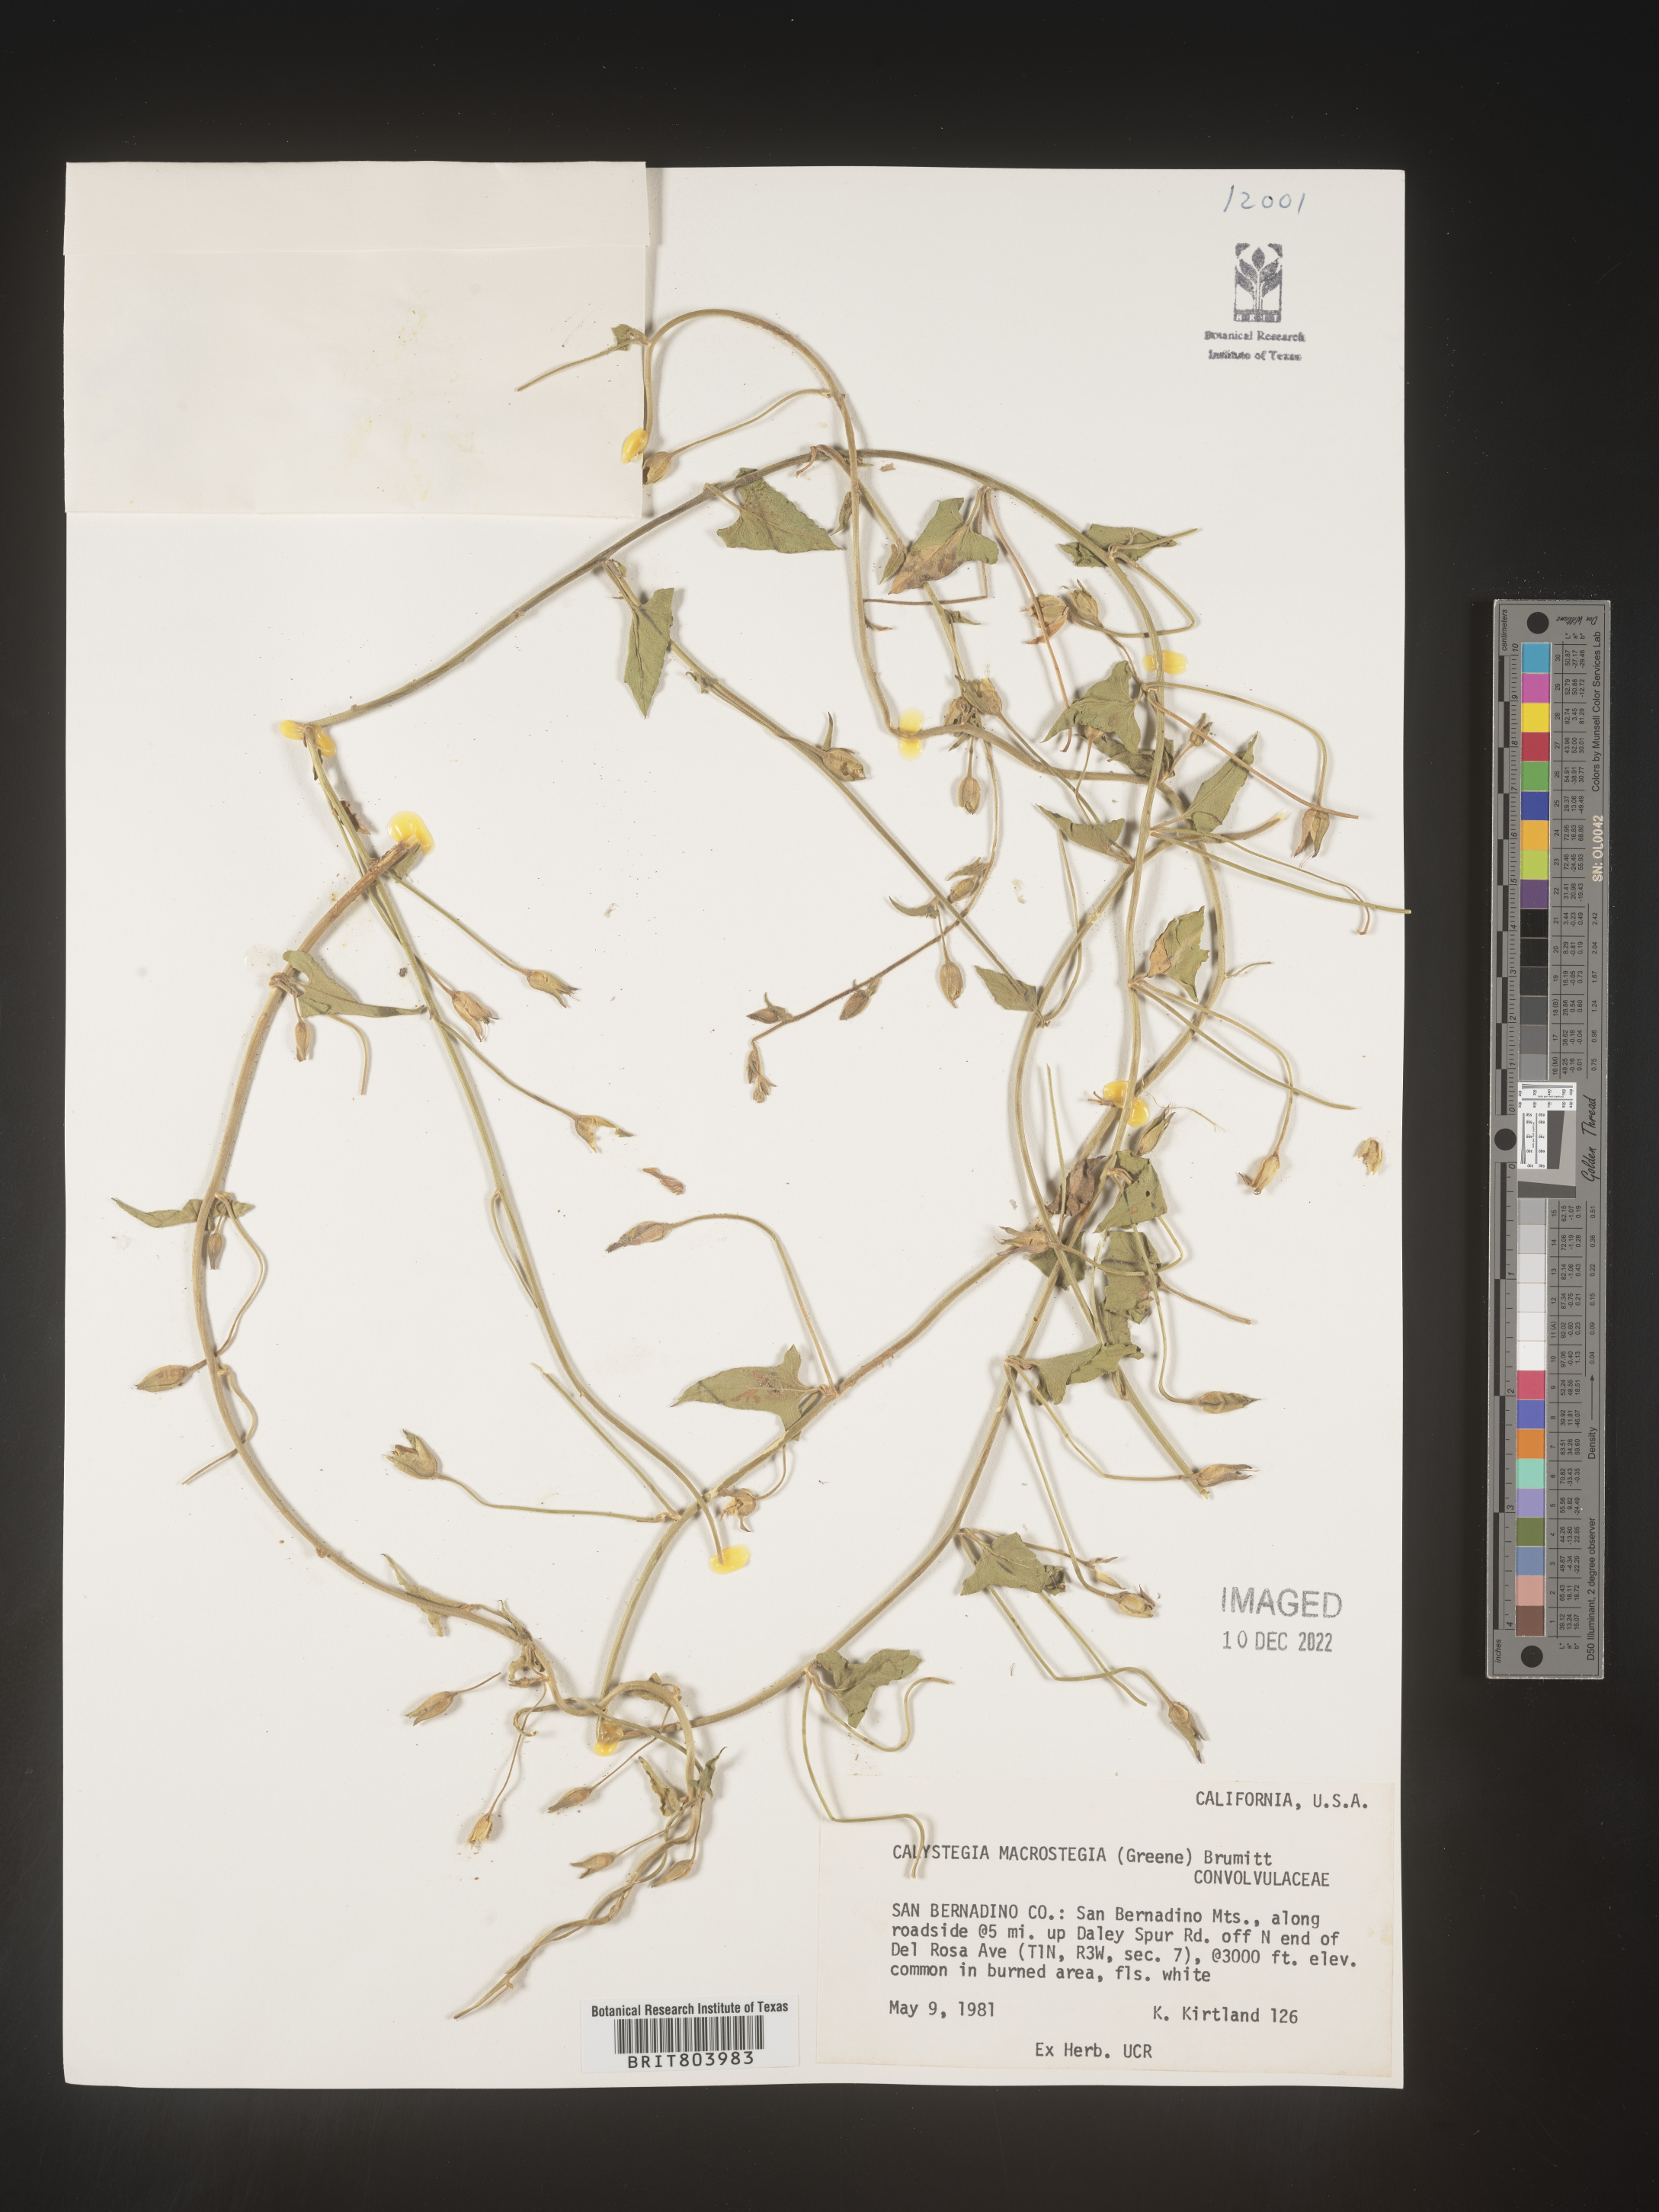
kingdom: Plantae
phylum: Tracheophyta
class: Magnoliopsida
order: Solanales
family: Convolvulaceae
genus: Calystegia
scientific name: Calystegia
